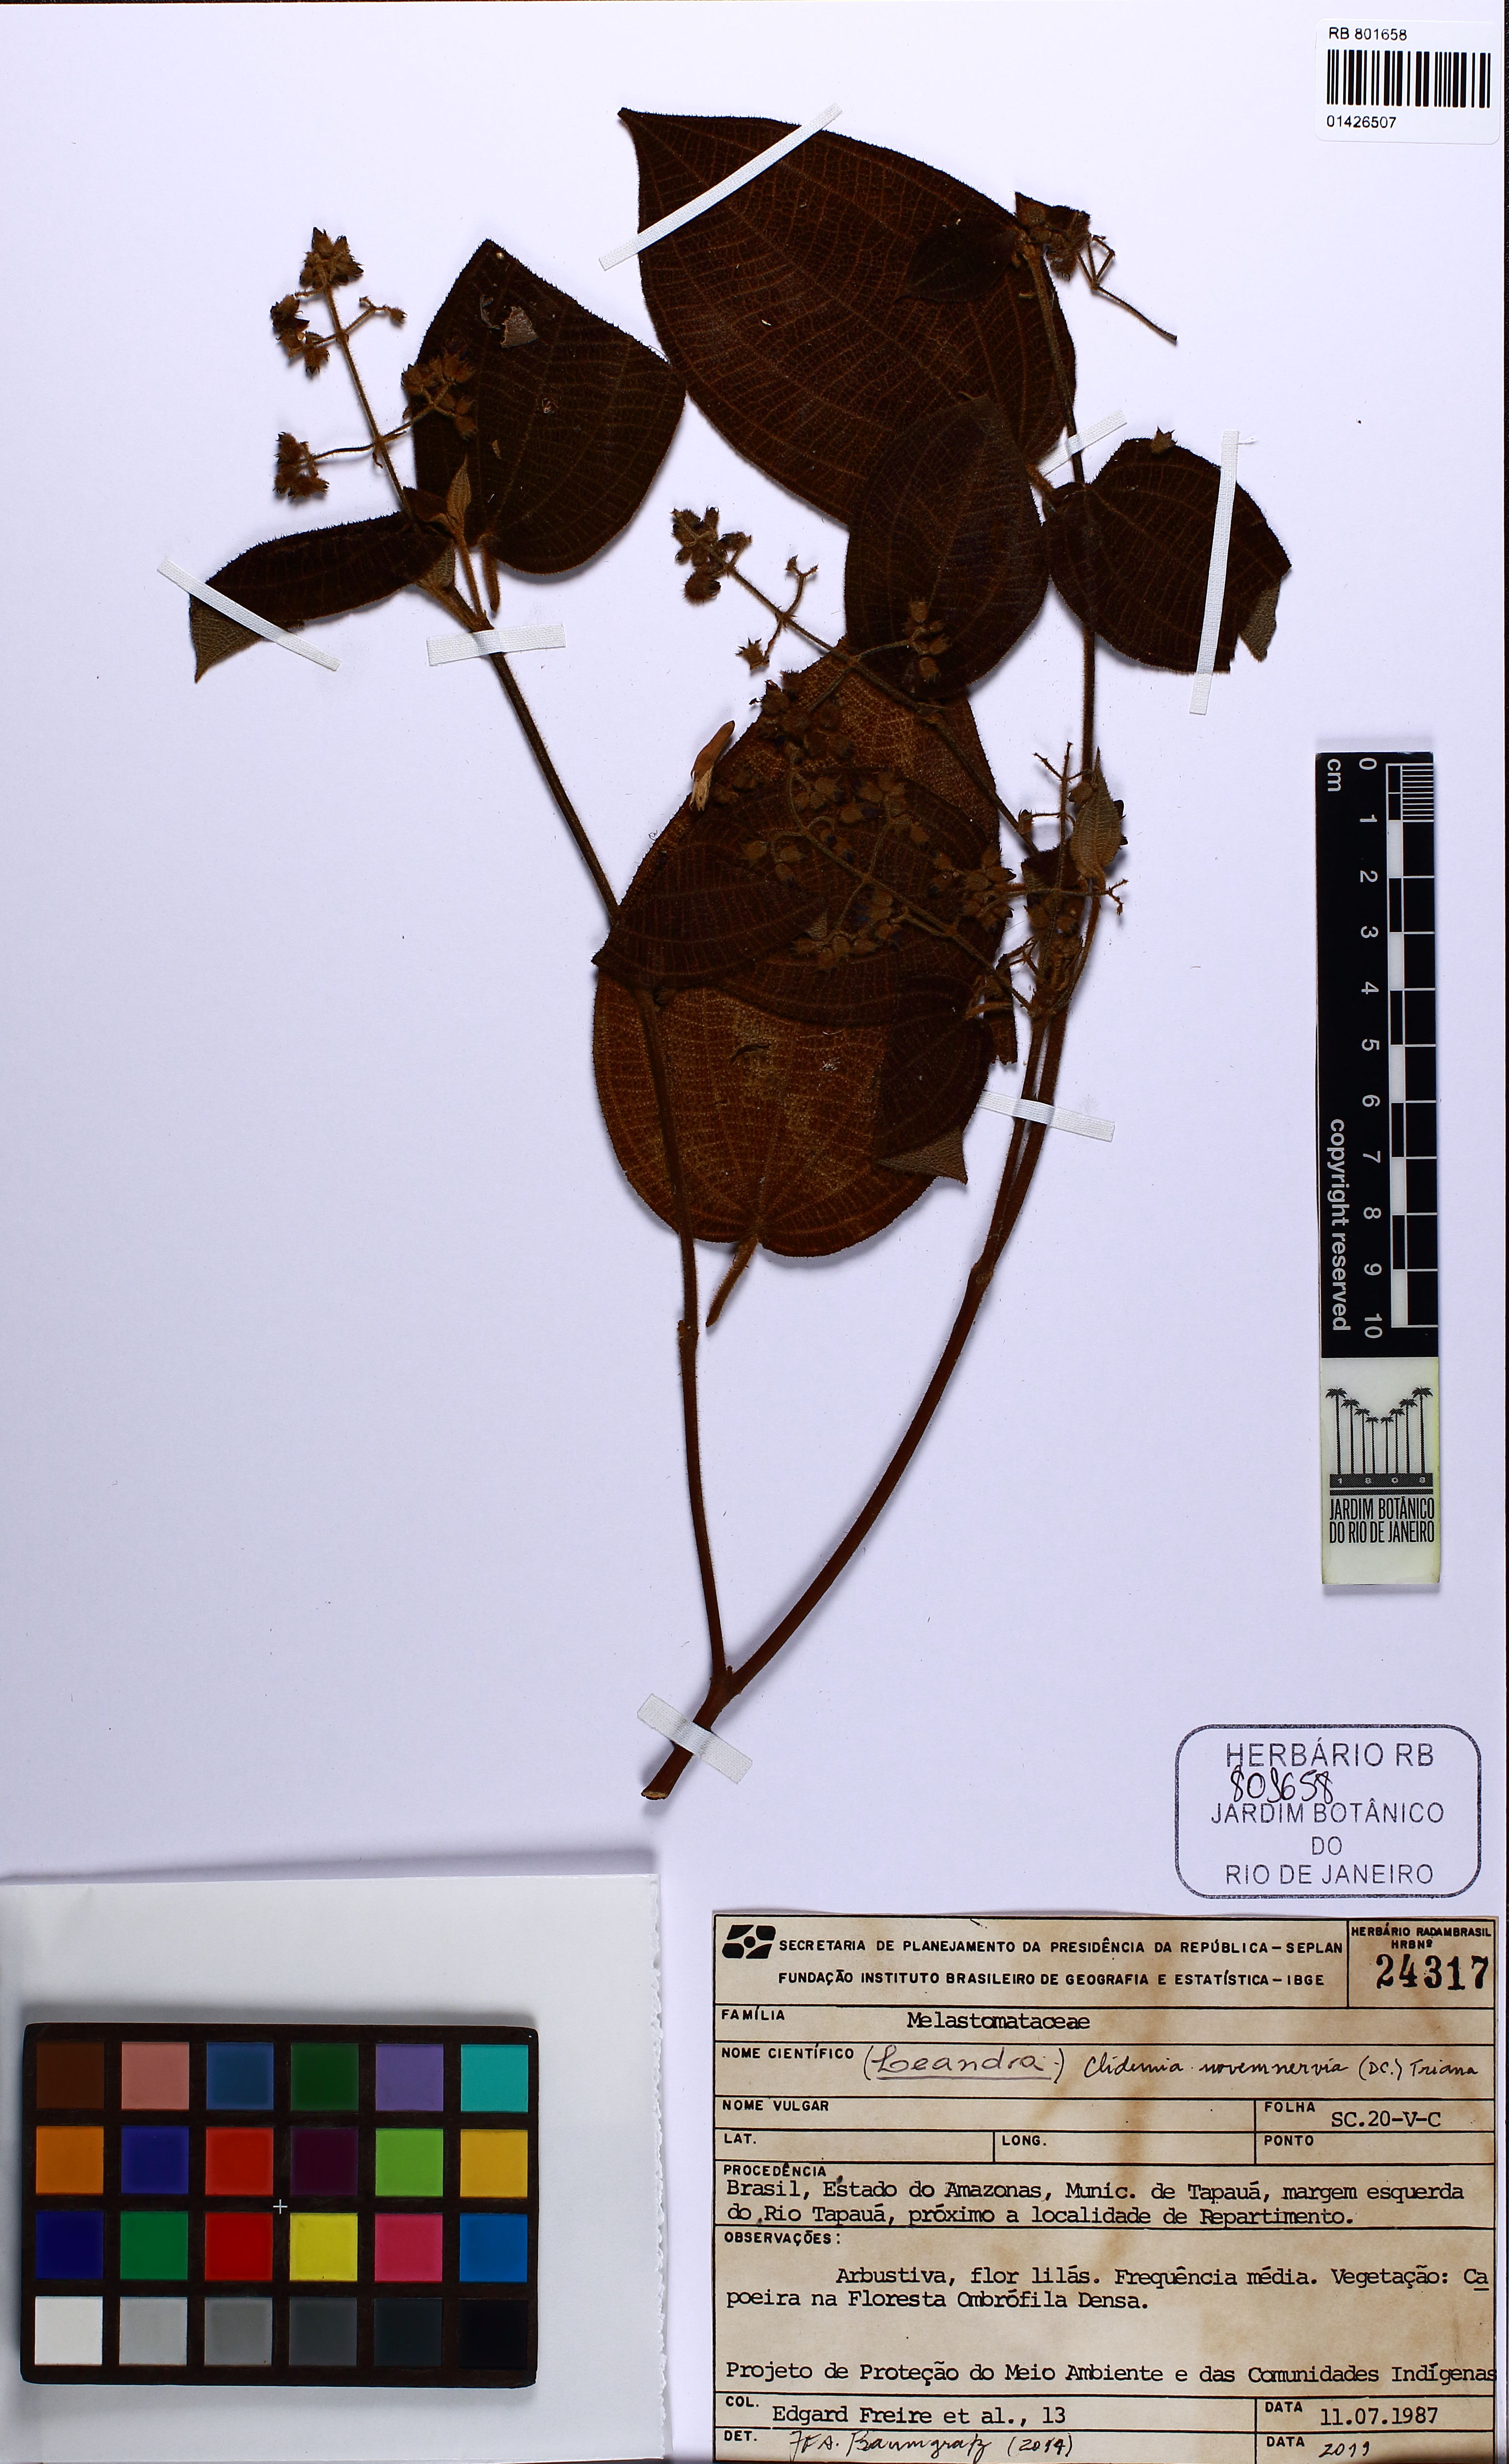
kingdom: Plantae
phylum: Tracheophyta
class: Magnoliopsida
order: Myrtales
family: Melastomataceae
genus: Miconia
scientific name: Miconia bullatifolia
